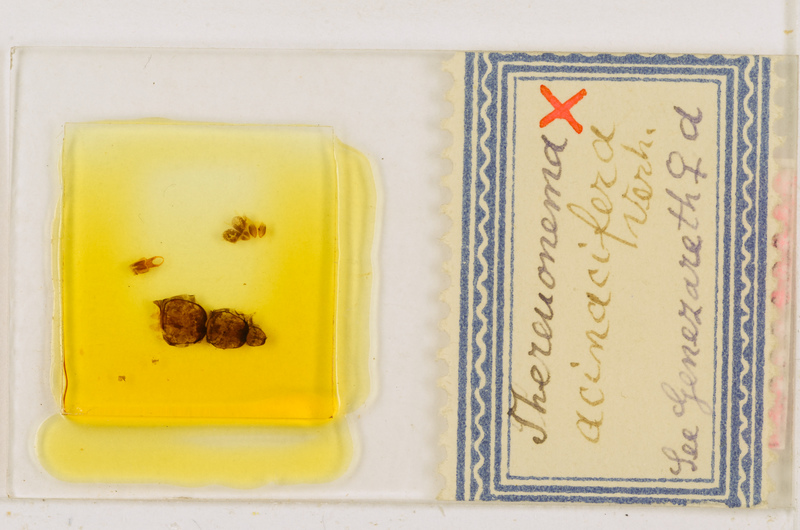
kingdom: Animalia
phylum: Arthropoda
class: Chilopoda
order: Scutigeromorpha
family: Scutigeridae
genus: Thereuonema
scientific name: Thereuonema microstoma
